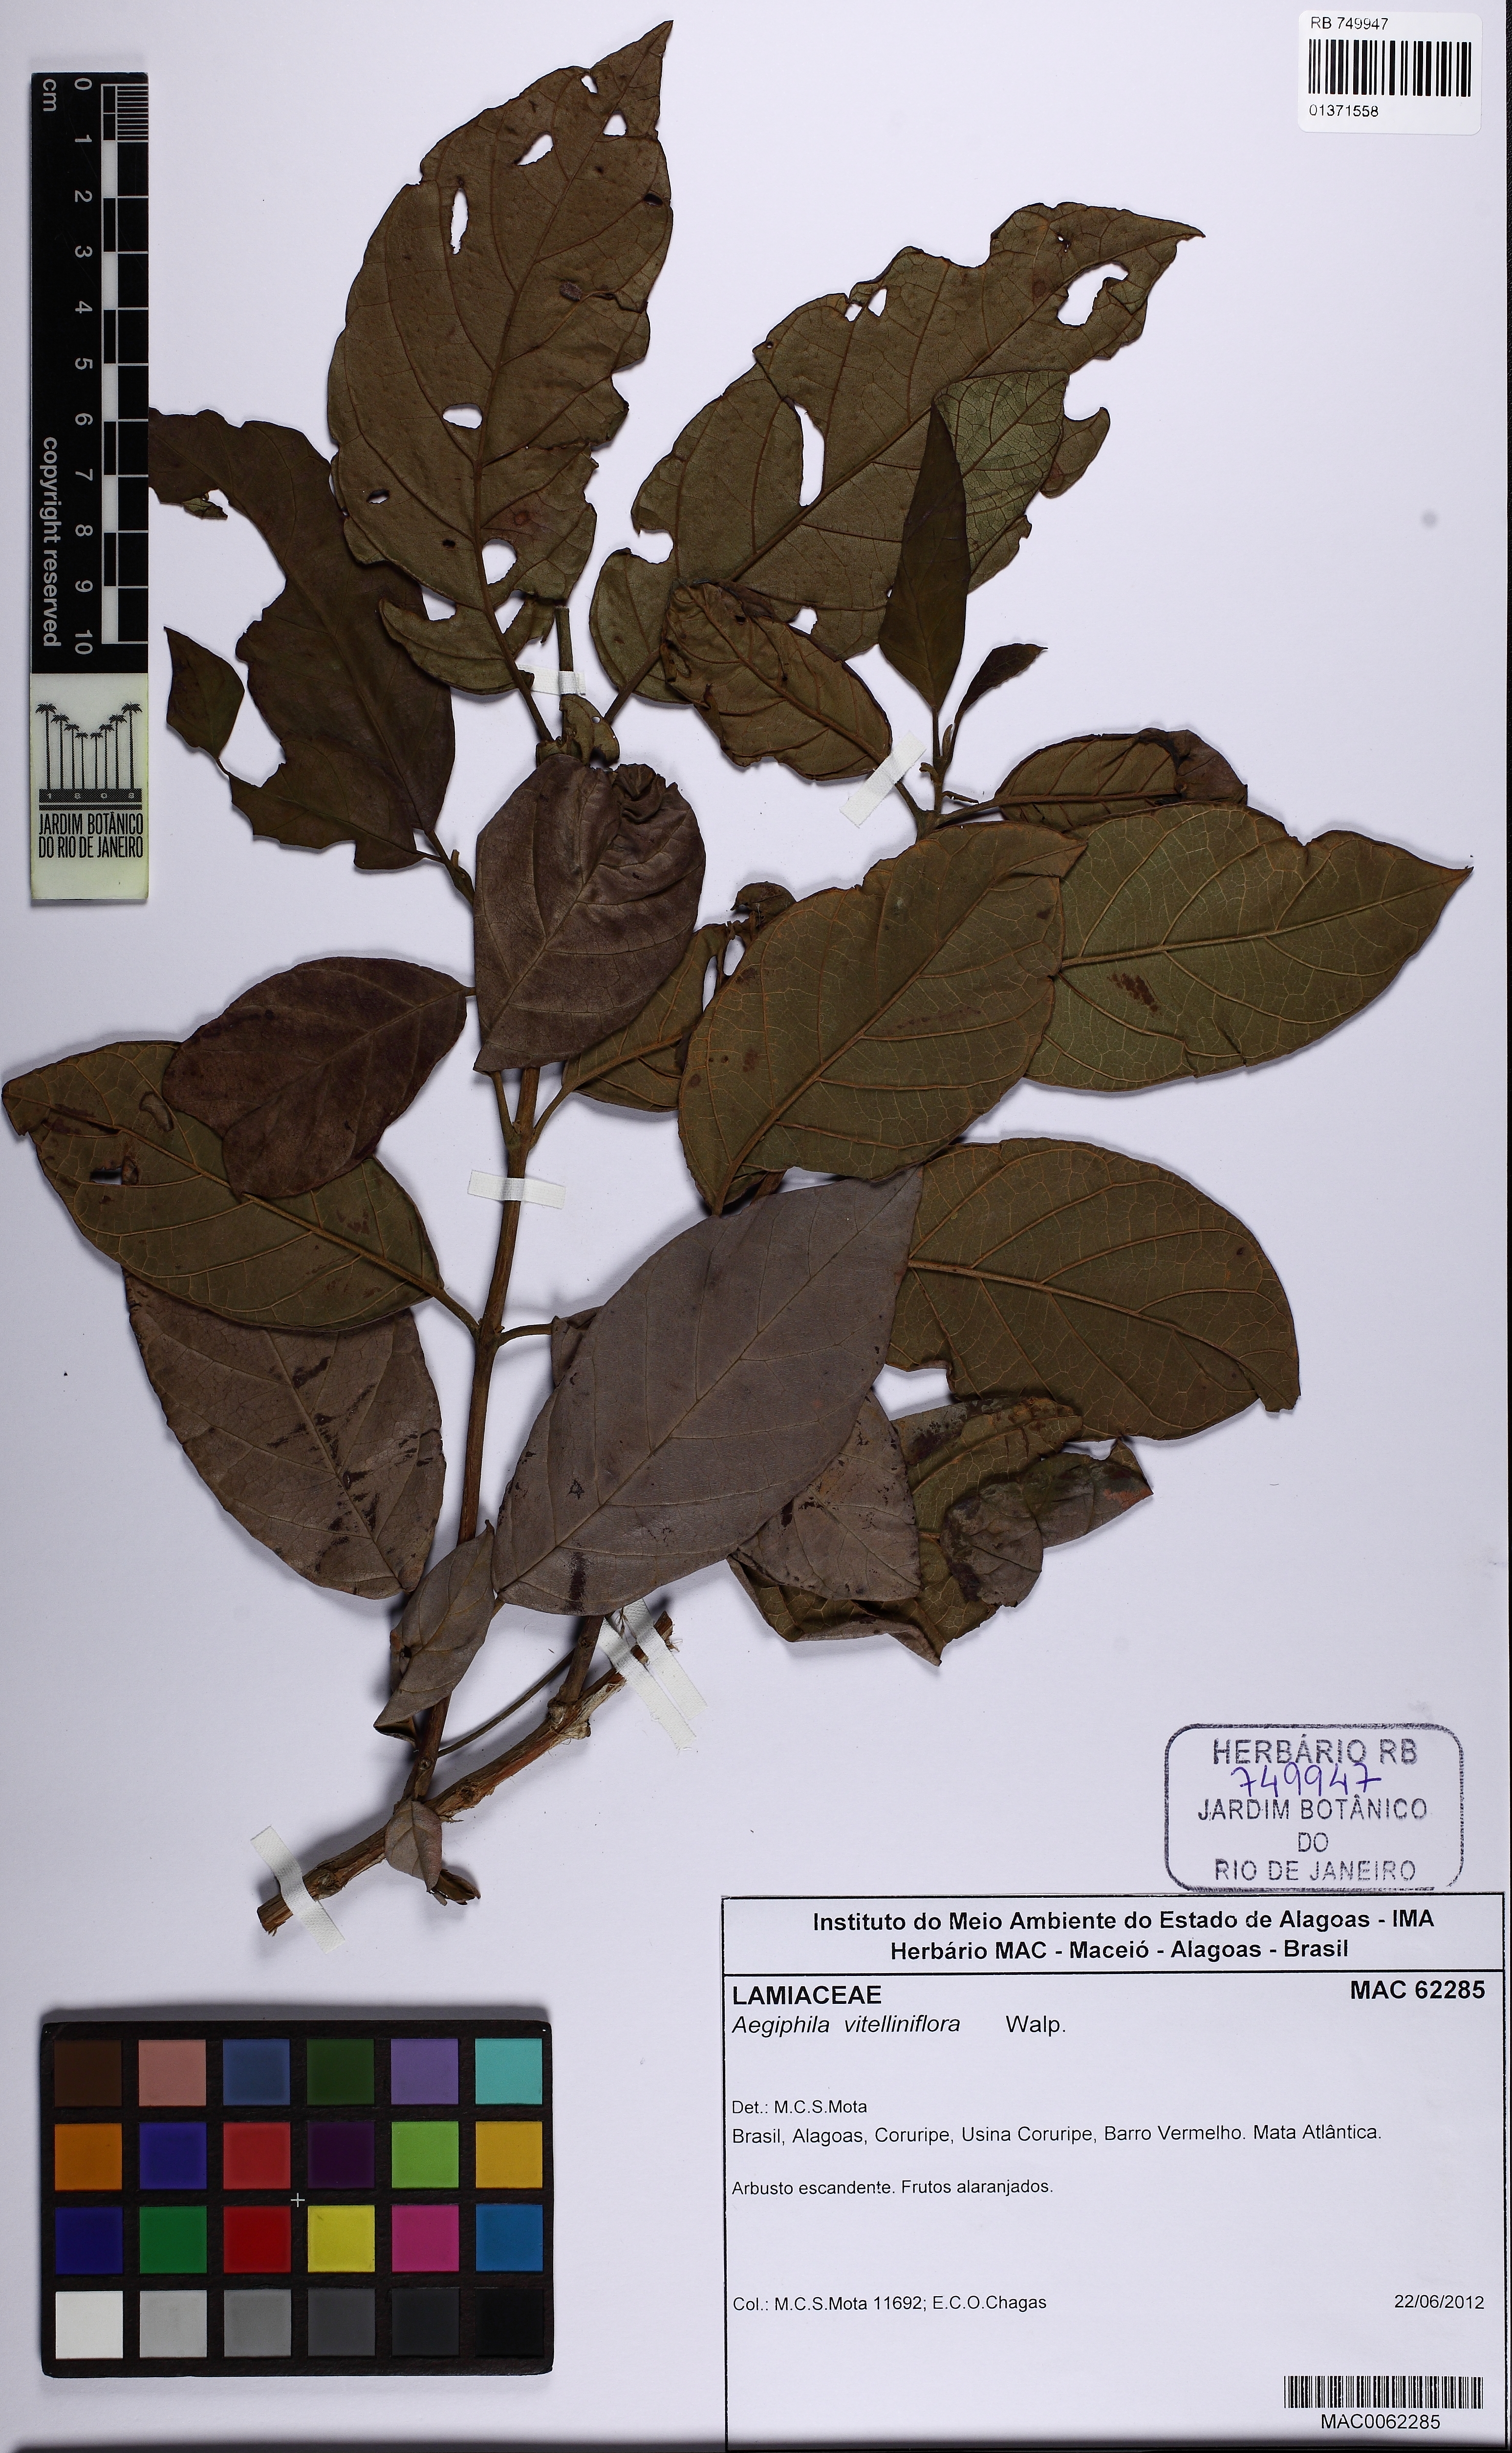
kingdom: Plantae
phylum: Tracheophyta
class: Magnoliopsida
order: Lamiales
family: Lamiaceae
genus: Aegiphila
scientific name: Aegiphila vitelliniflora
